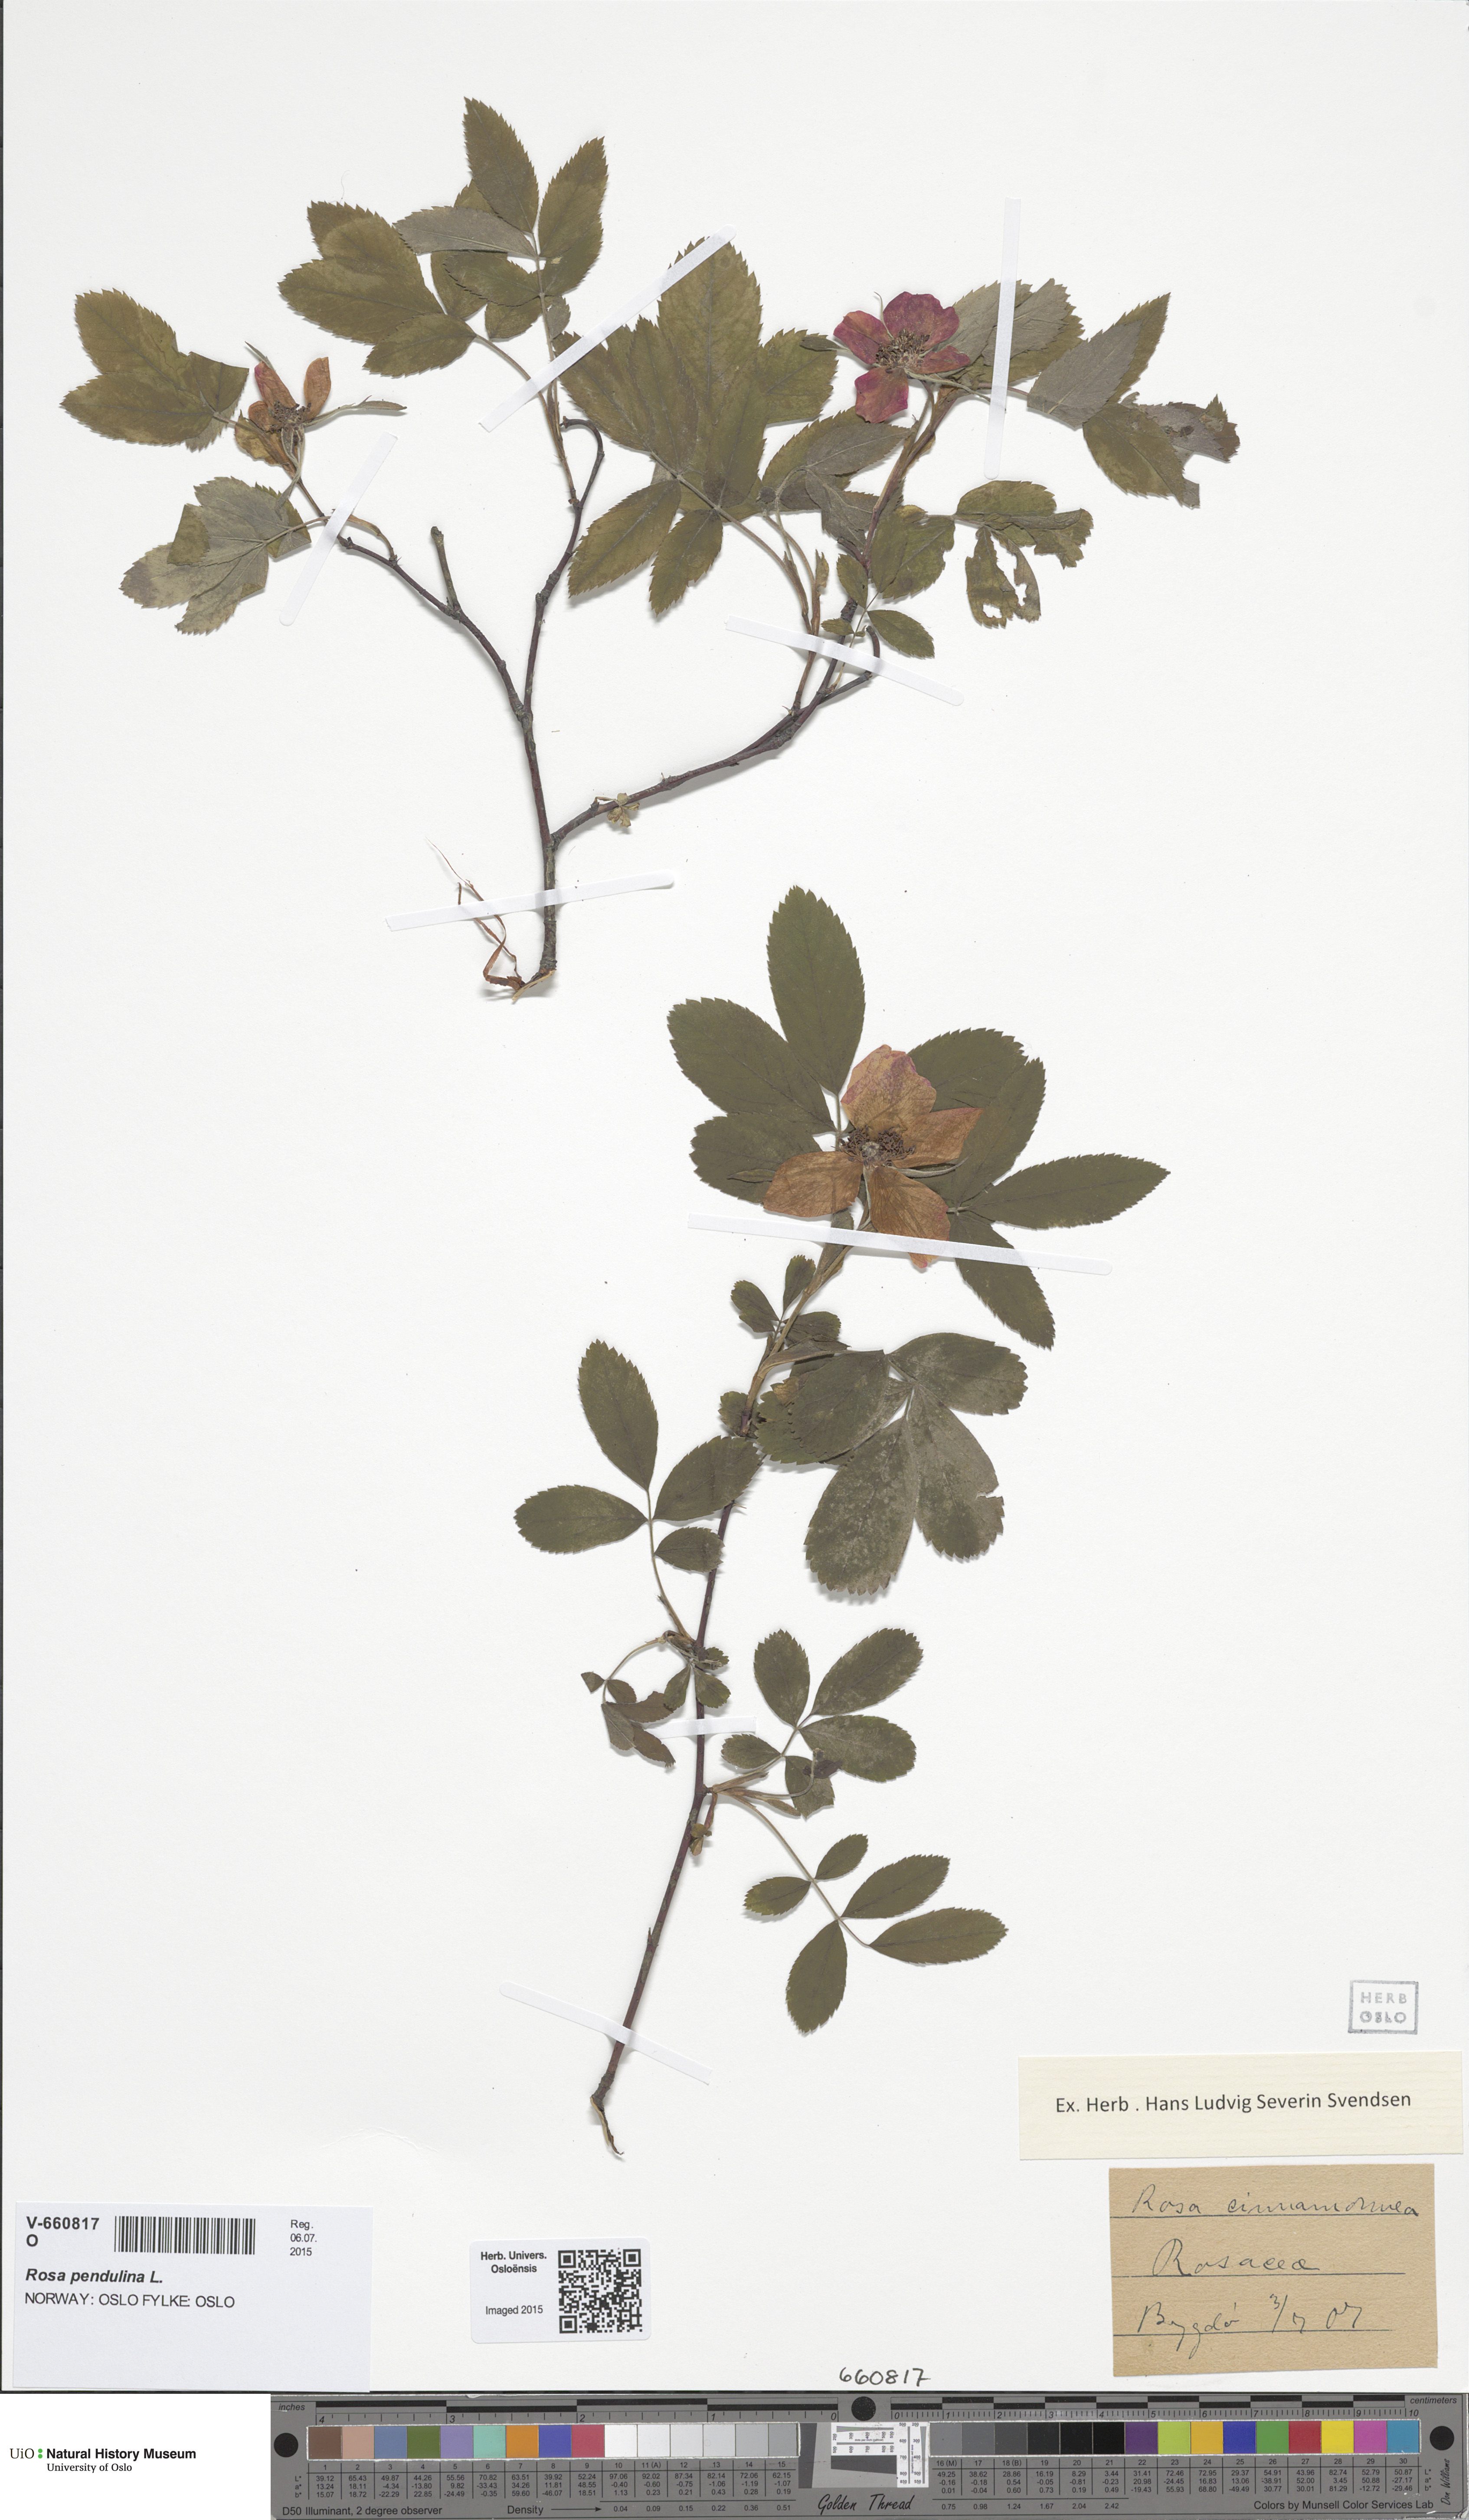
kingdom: Plantae
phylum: Tracheophyta
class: Magnoliopsida
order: Rosales
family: Rosaceae
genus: Rosa
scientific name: Rosa majalis
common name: Cinnamon rose
